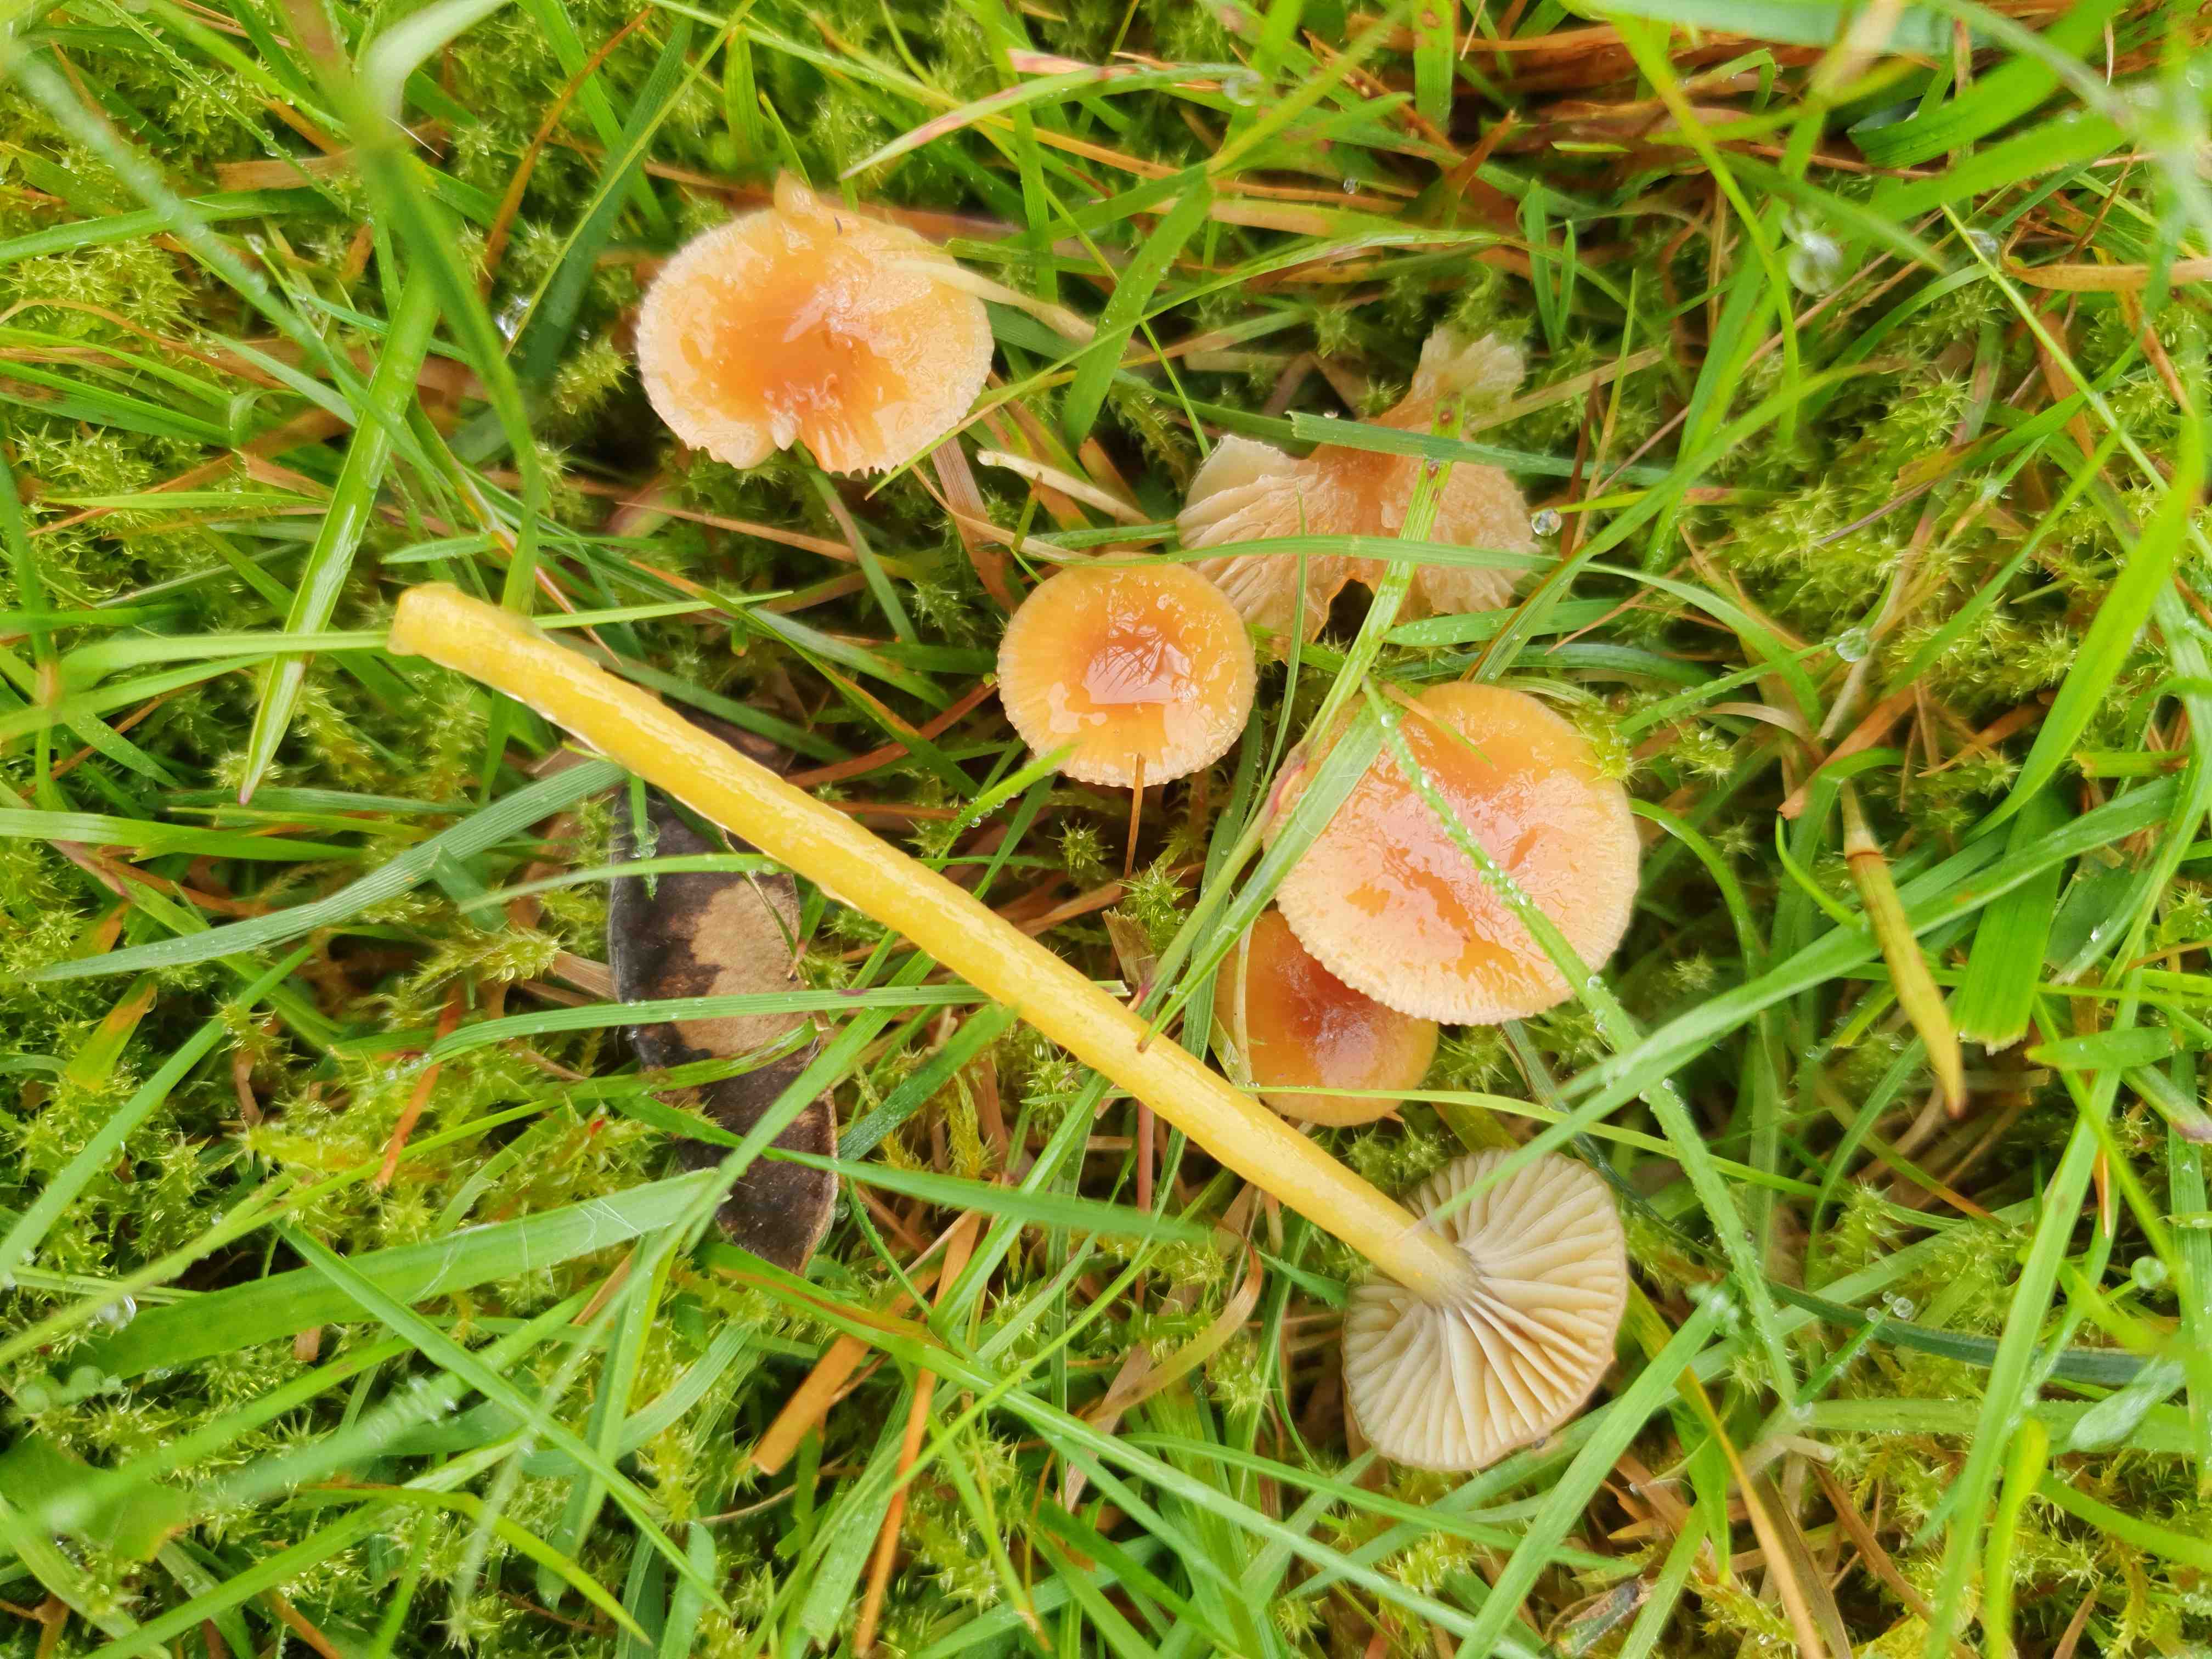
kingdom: Fungi
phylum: Basidiomycota
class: Agaricomycetes
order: Agaricales
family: Hygrophoraceae
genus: Gliophorus
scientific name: Gliophorus laetus
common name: brusk-vokshat
